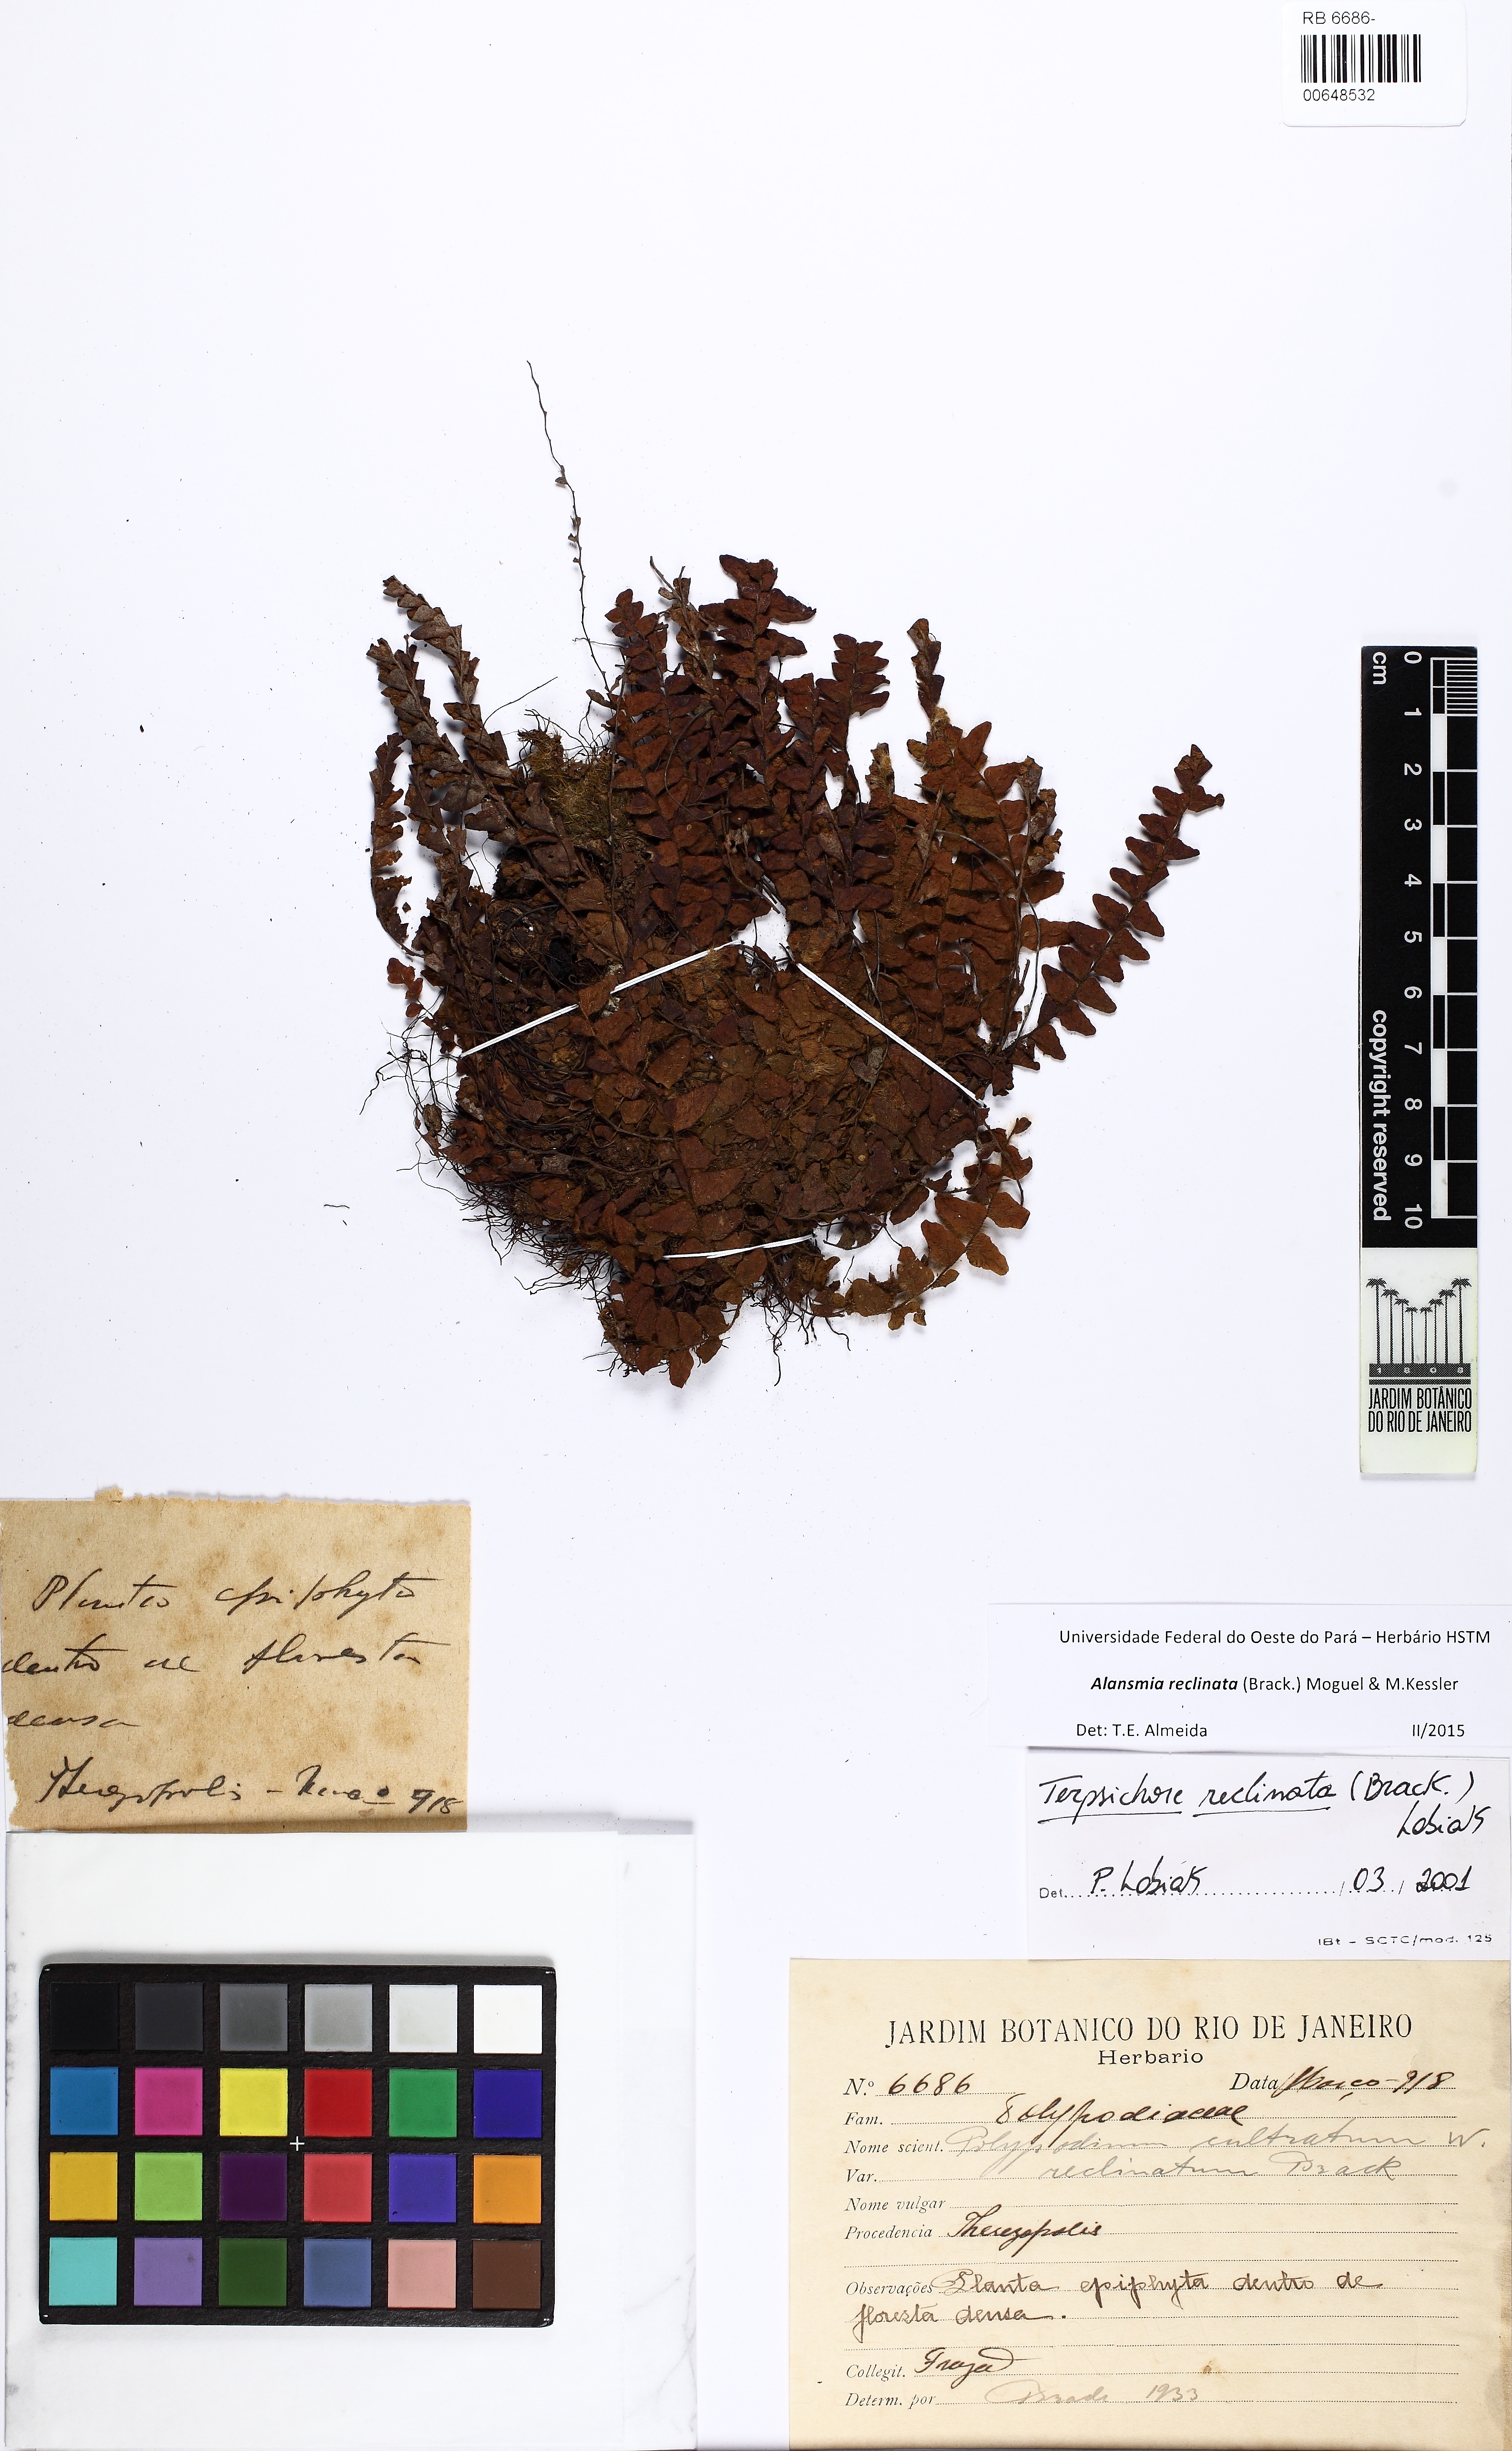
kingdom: Plantae
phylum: Tracheophyta
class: Polypodiopsida
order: Polypodiales
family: Polypodiaceae
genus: Alansmia
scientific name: Alansmia reclinata
